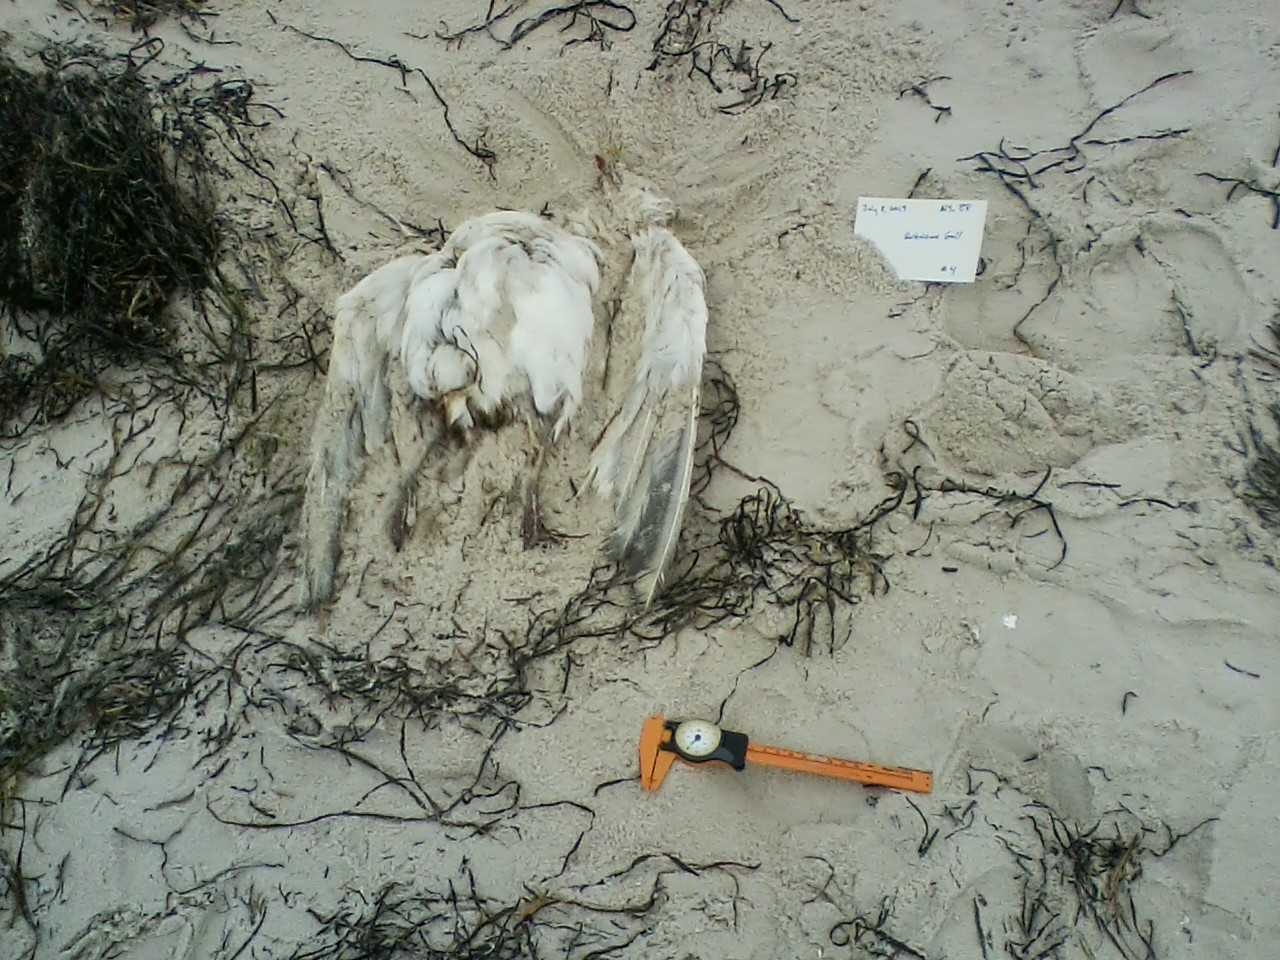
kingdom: Animalia
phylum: Chordata
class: Aves
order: Charadriiformes
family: Haematopodidae
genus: Haematopus
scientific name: Haematopus palliatus
